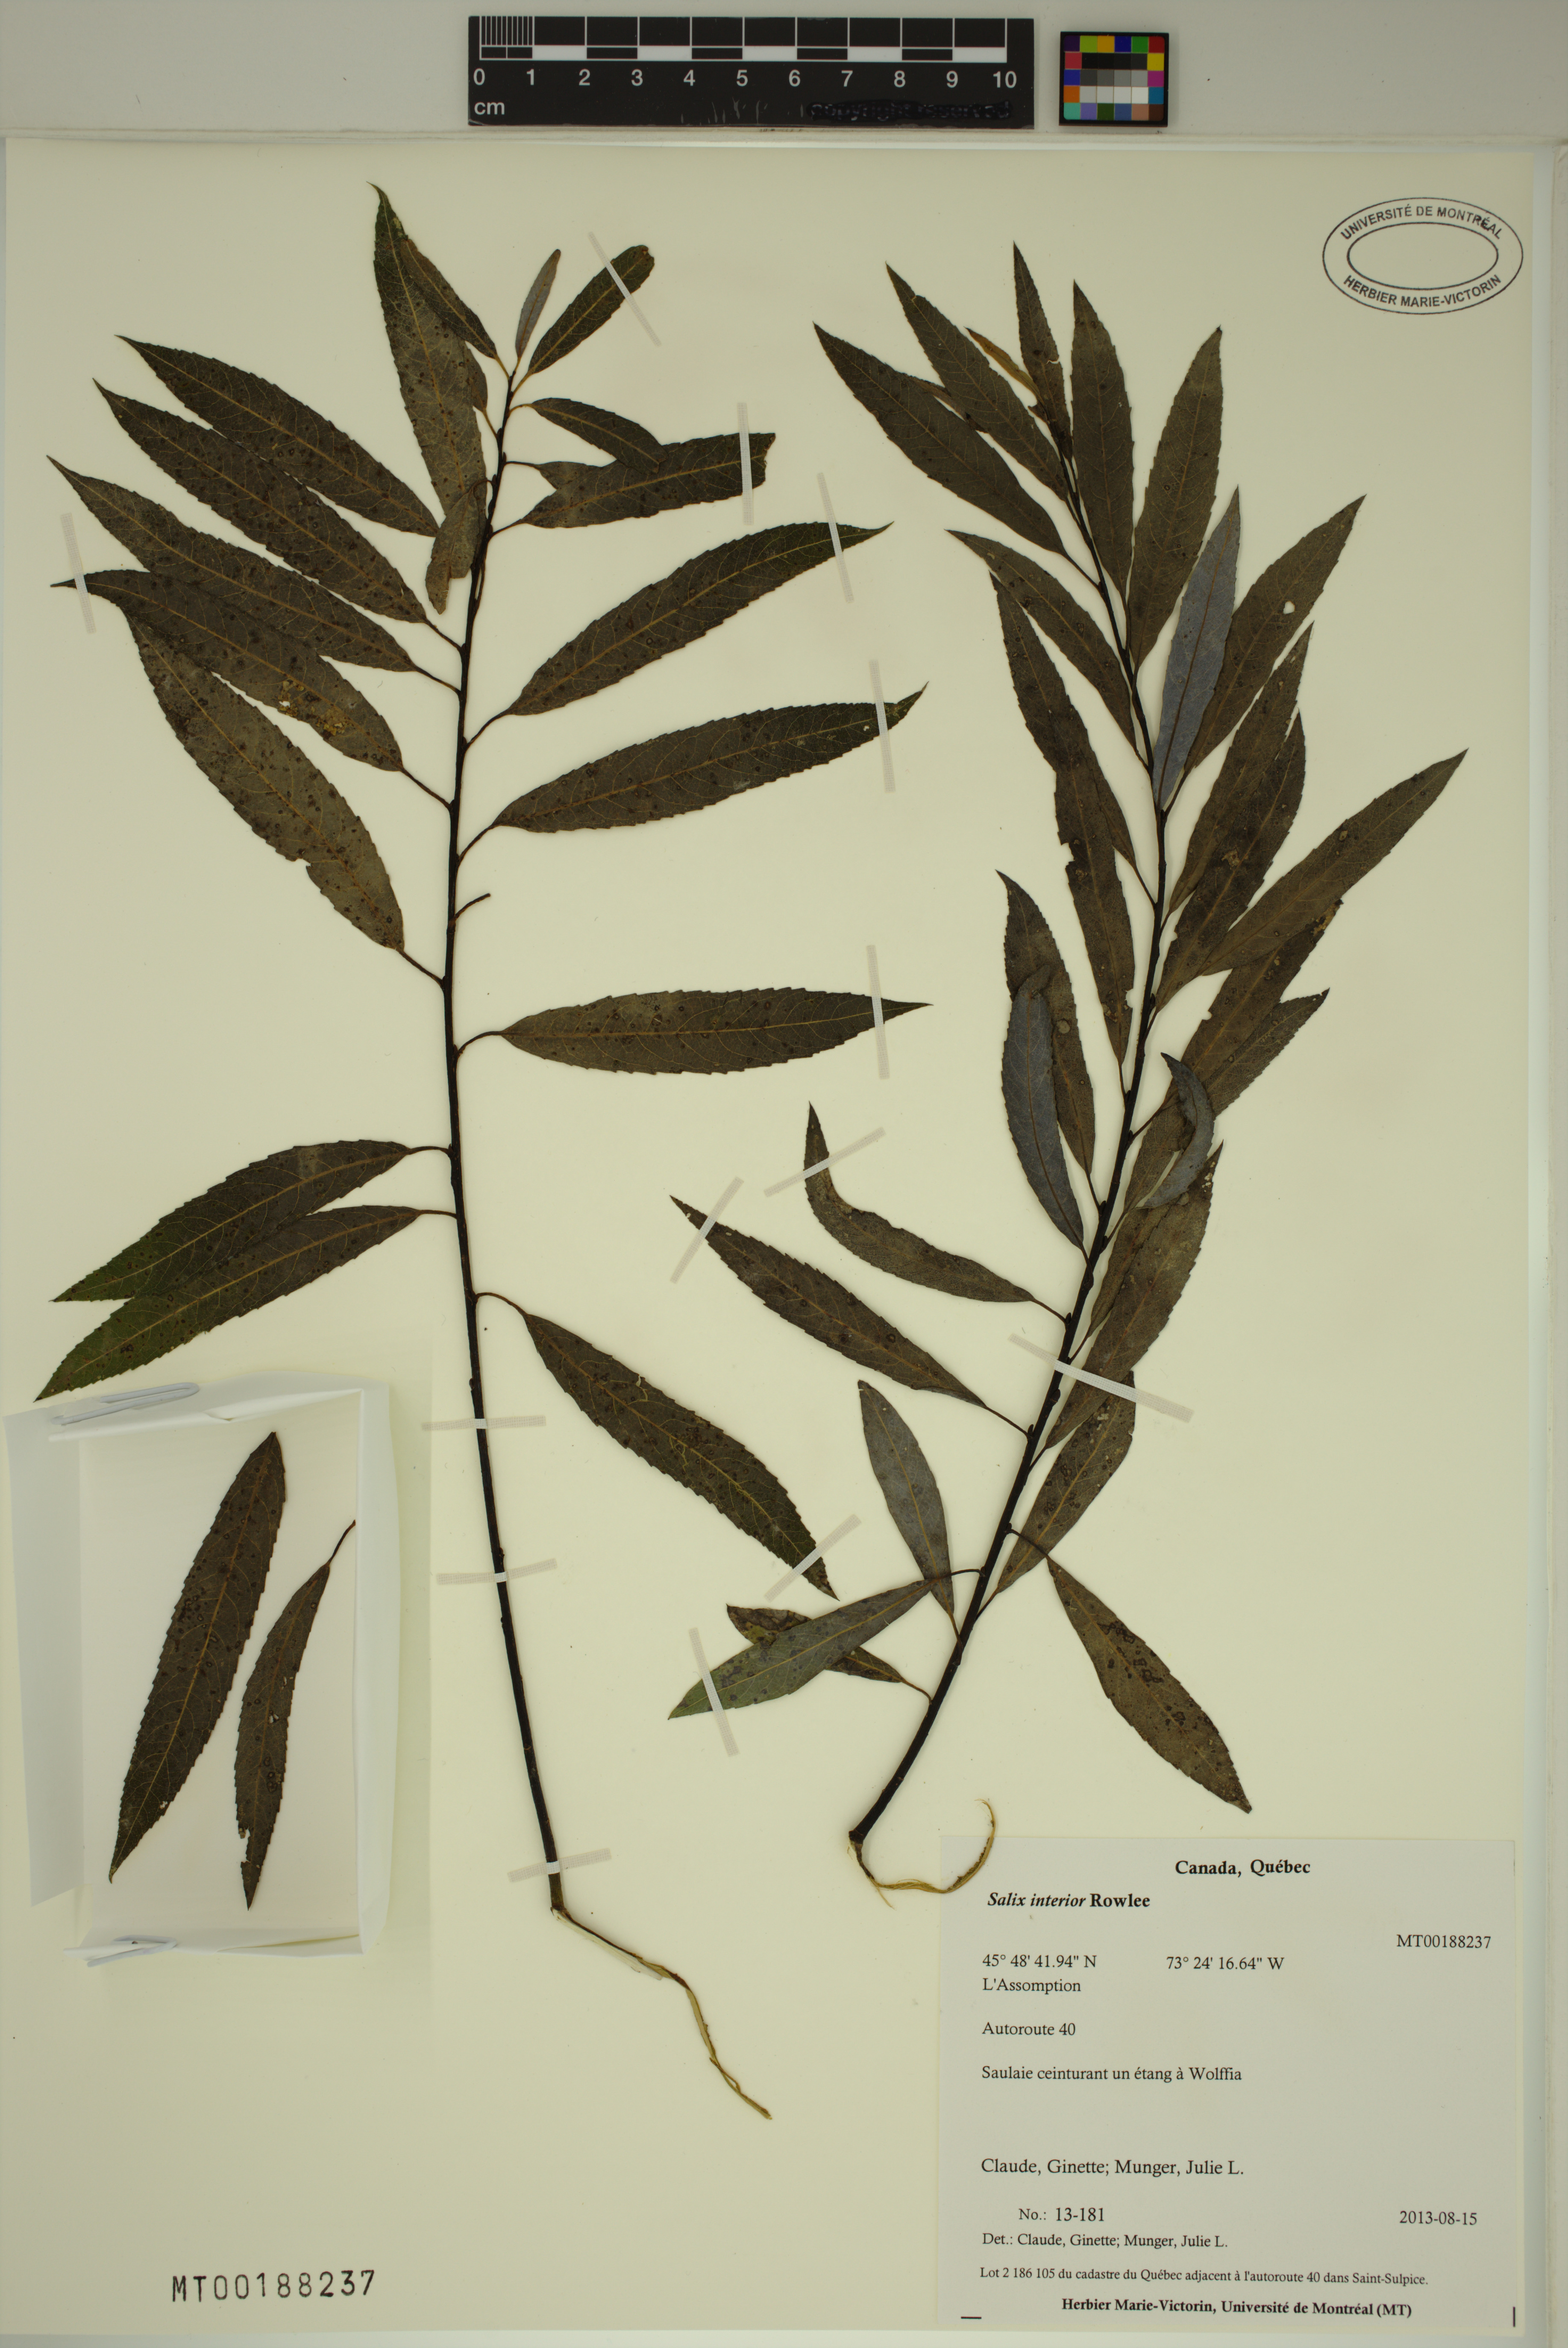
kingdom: Plantae
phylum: Tracheophyta
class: Magnoliopsida
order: Malpighiales
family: Salicaceae
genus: Salix
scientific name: Salix interior
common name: Sandbar willow
